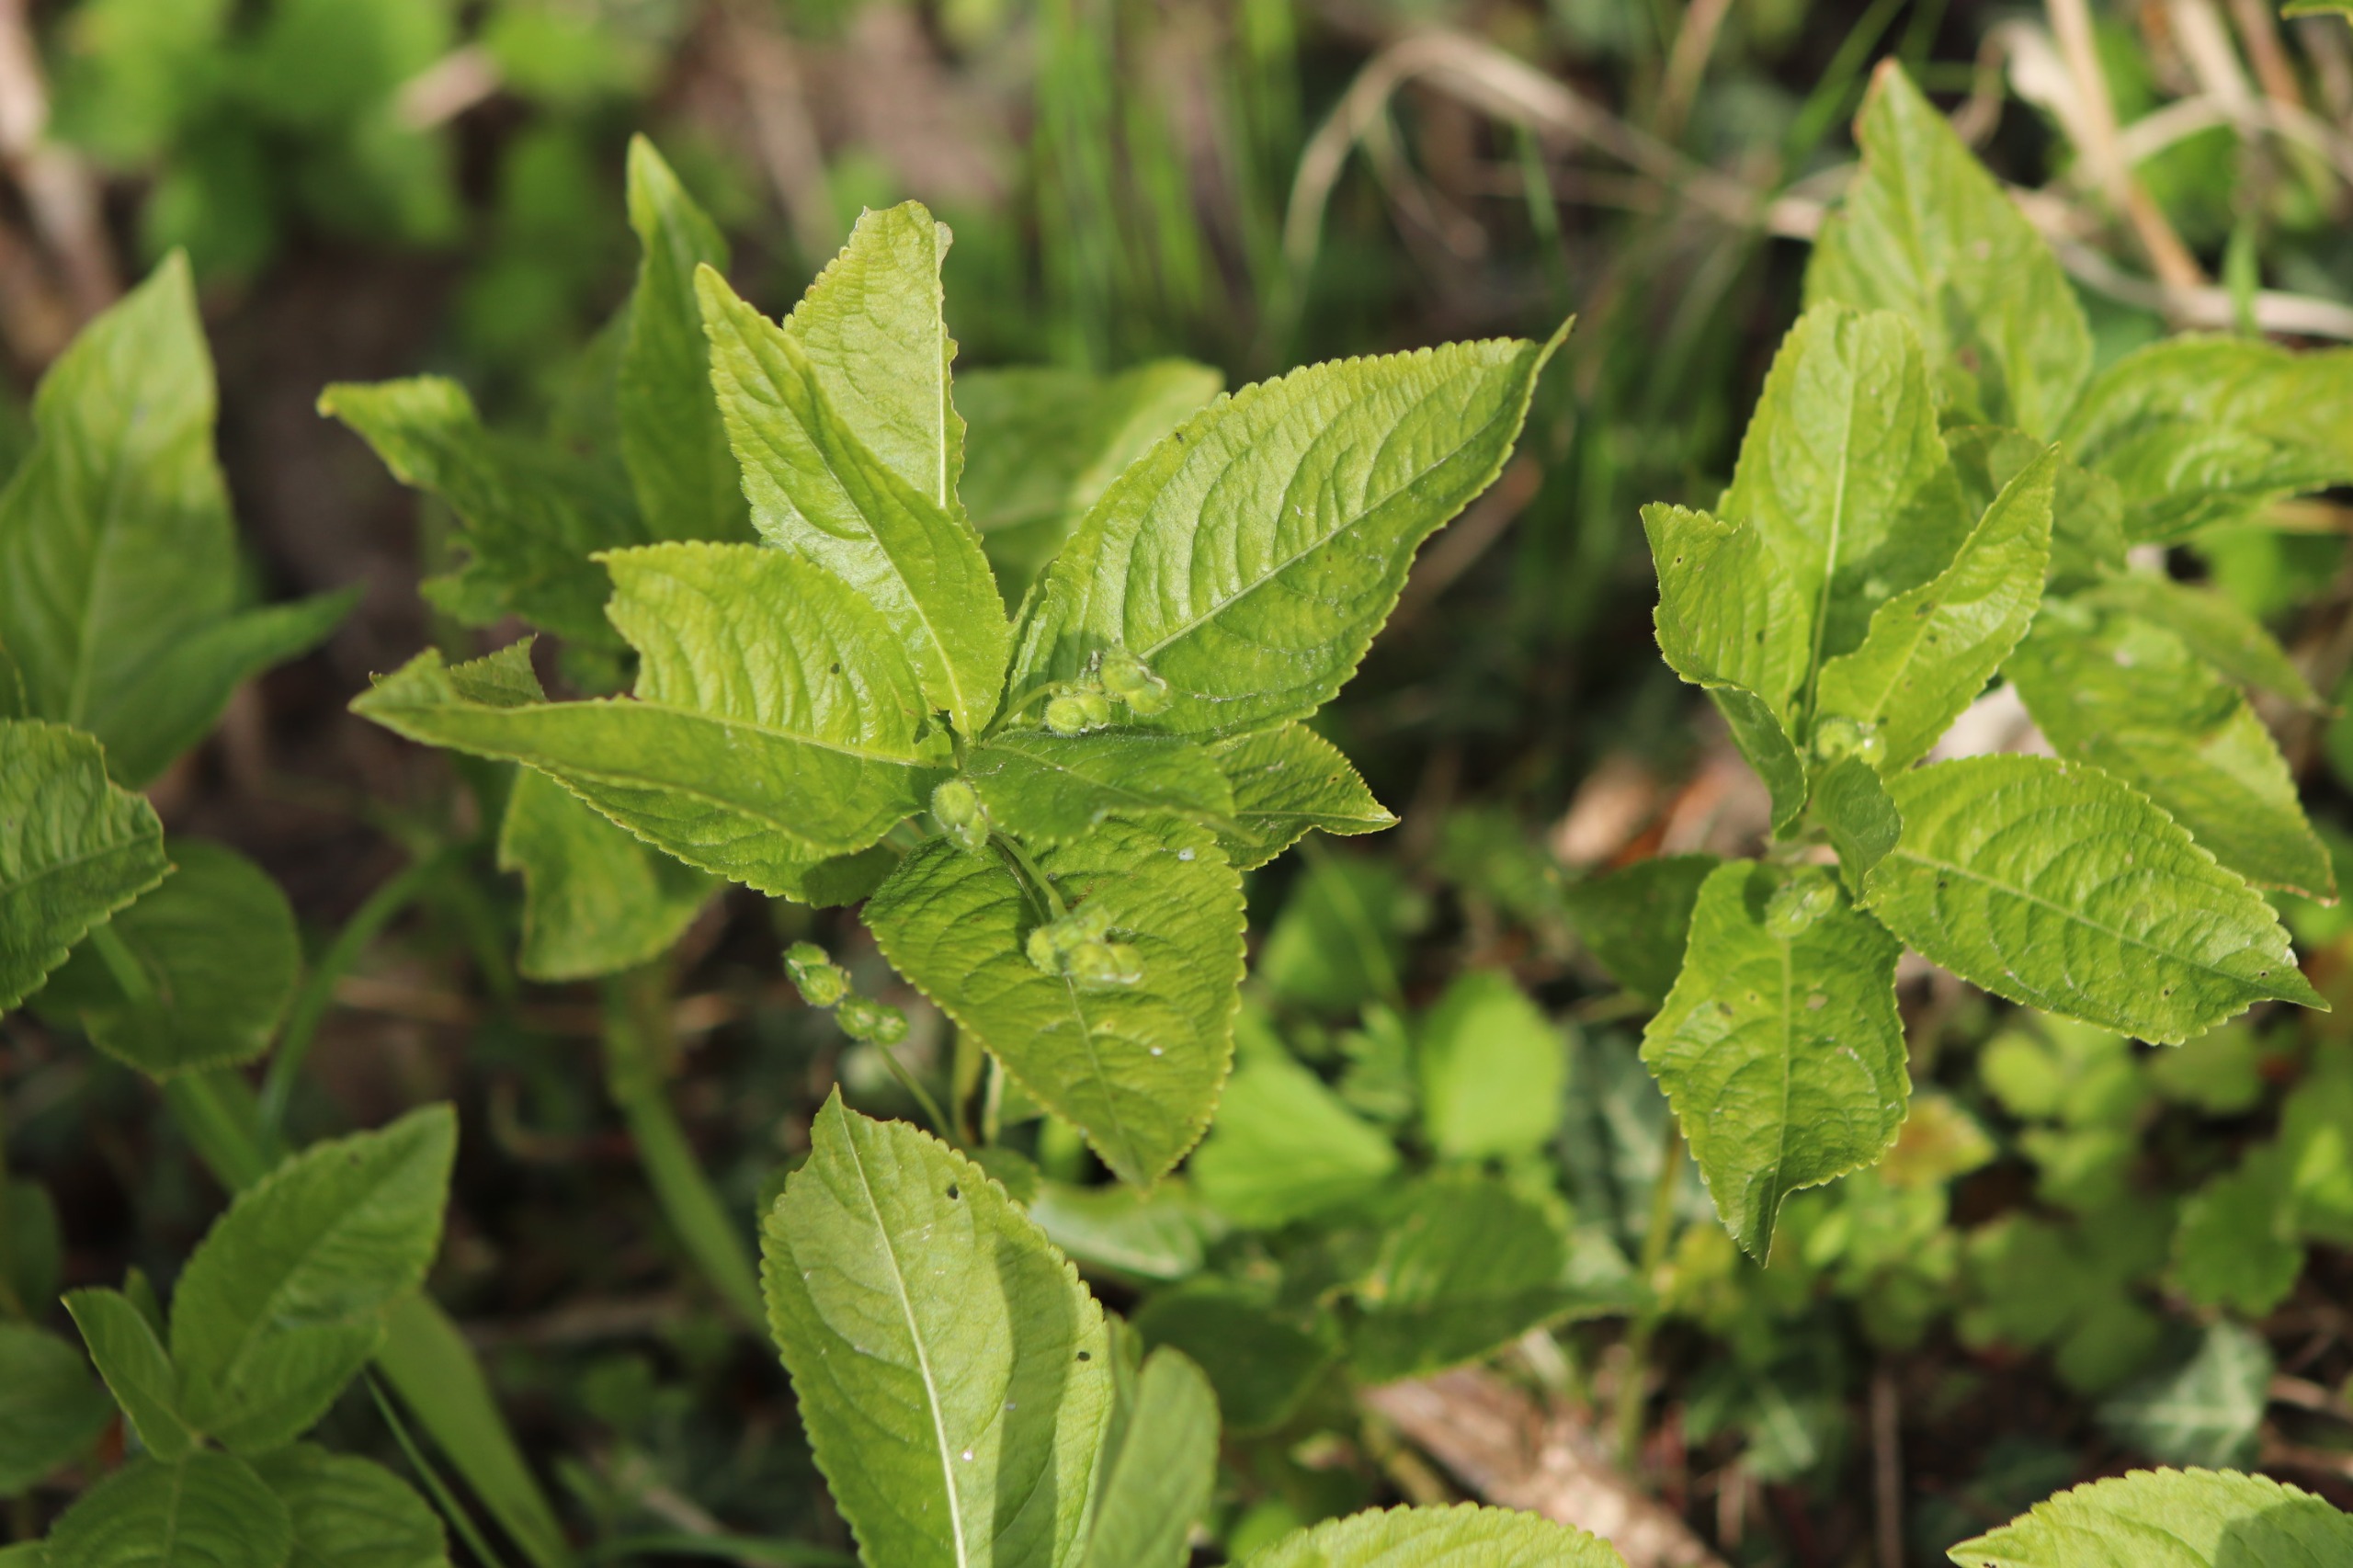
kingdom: Plantae
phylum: Tracheophyta
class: Magnoliopsida
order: Malpighiales
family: Euphorbiaceae
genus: Mercurialis
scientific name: Mercurialis perennis
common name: Almindelig bingelurt
